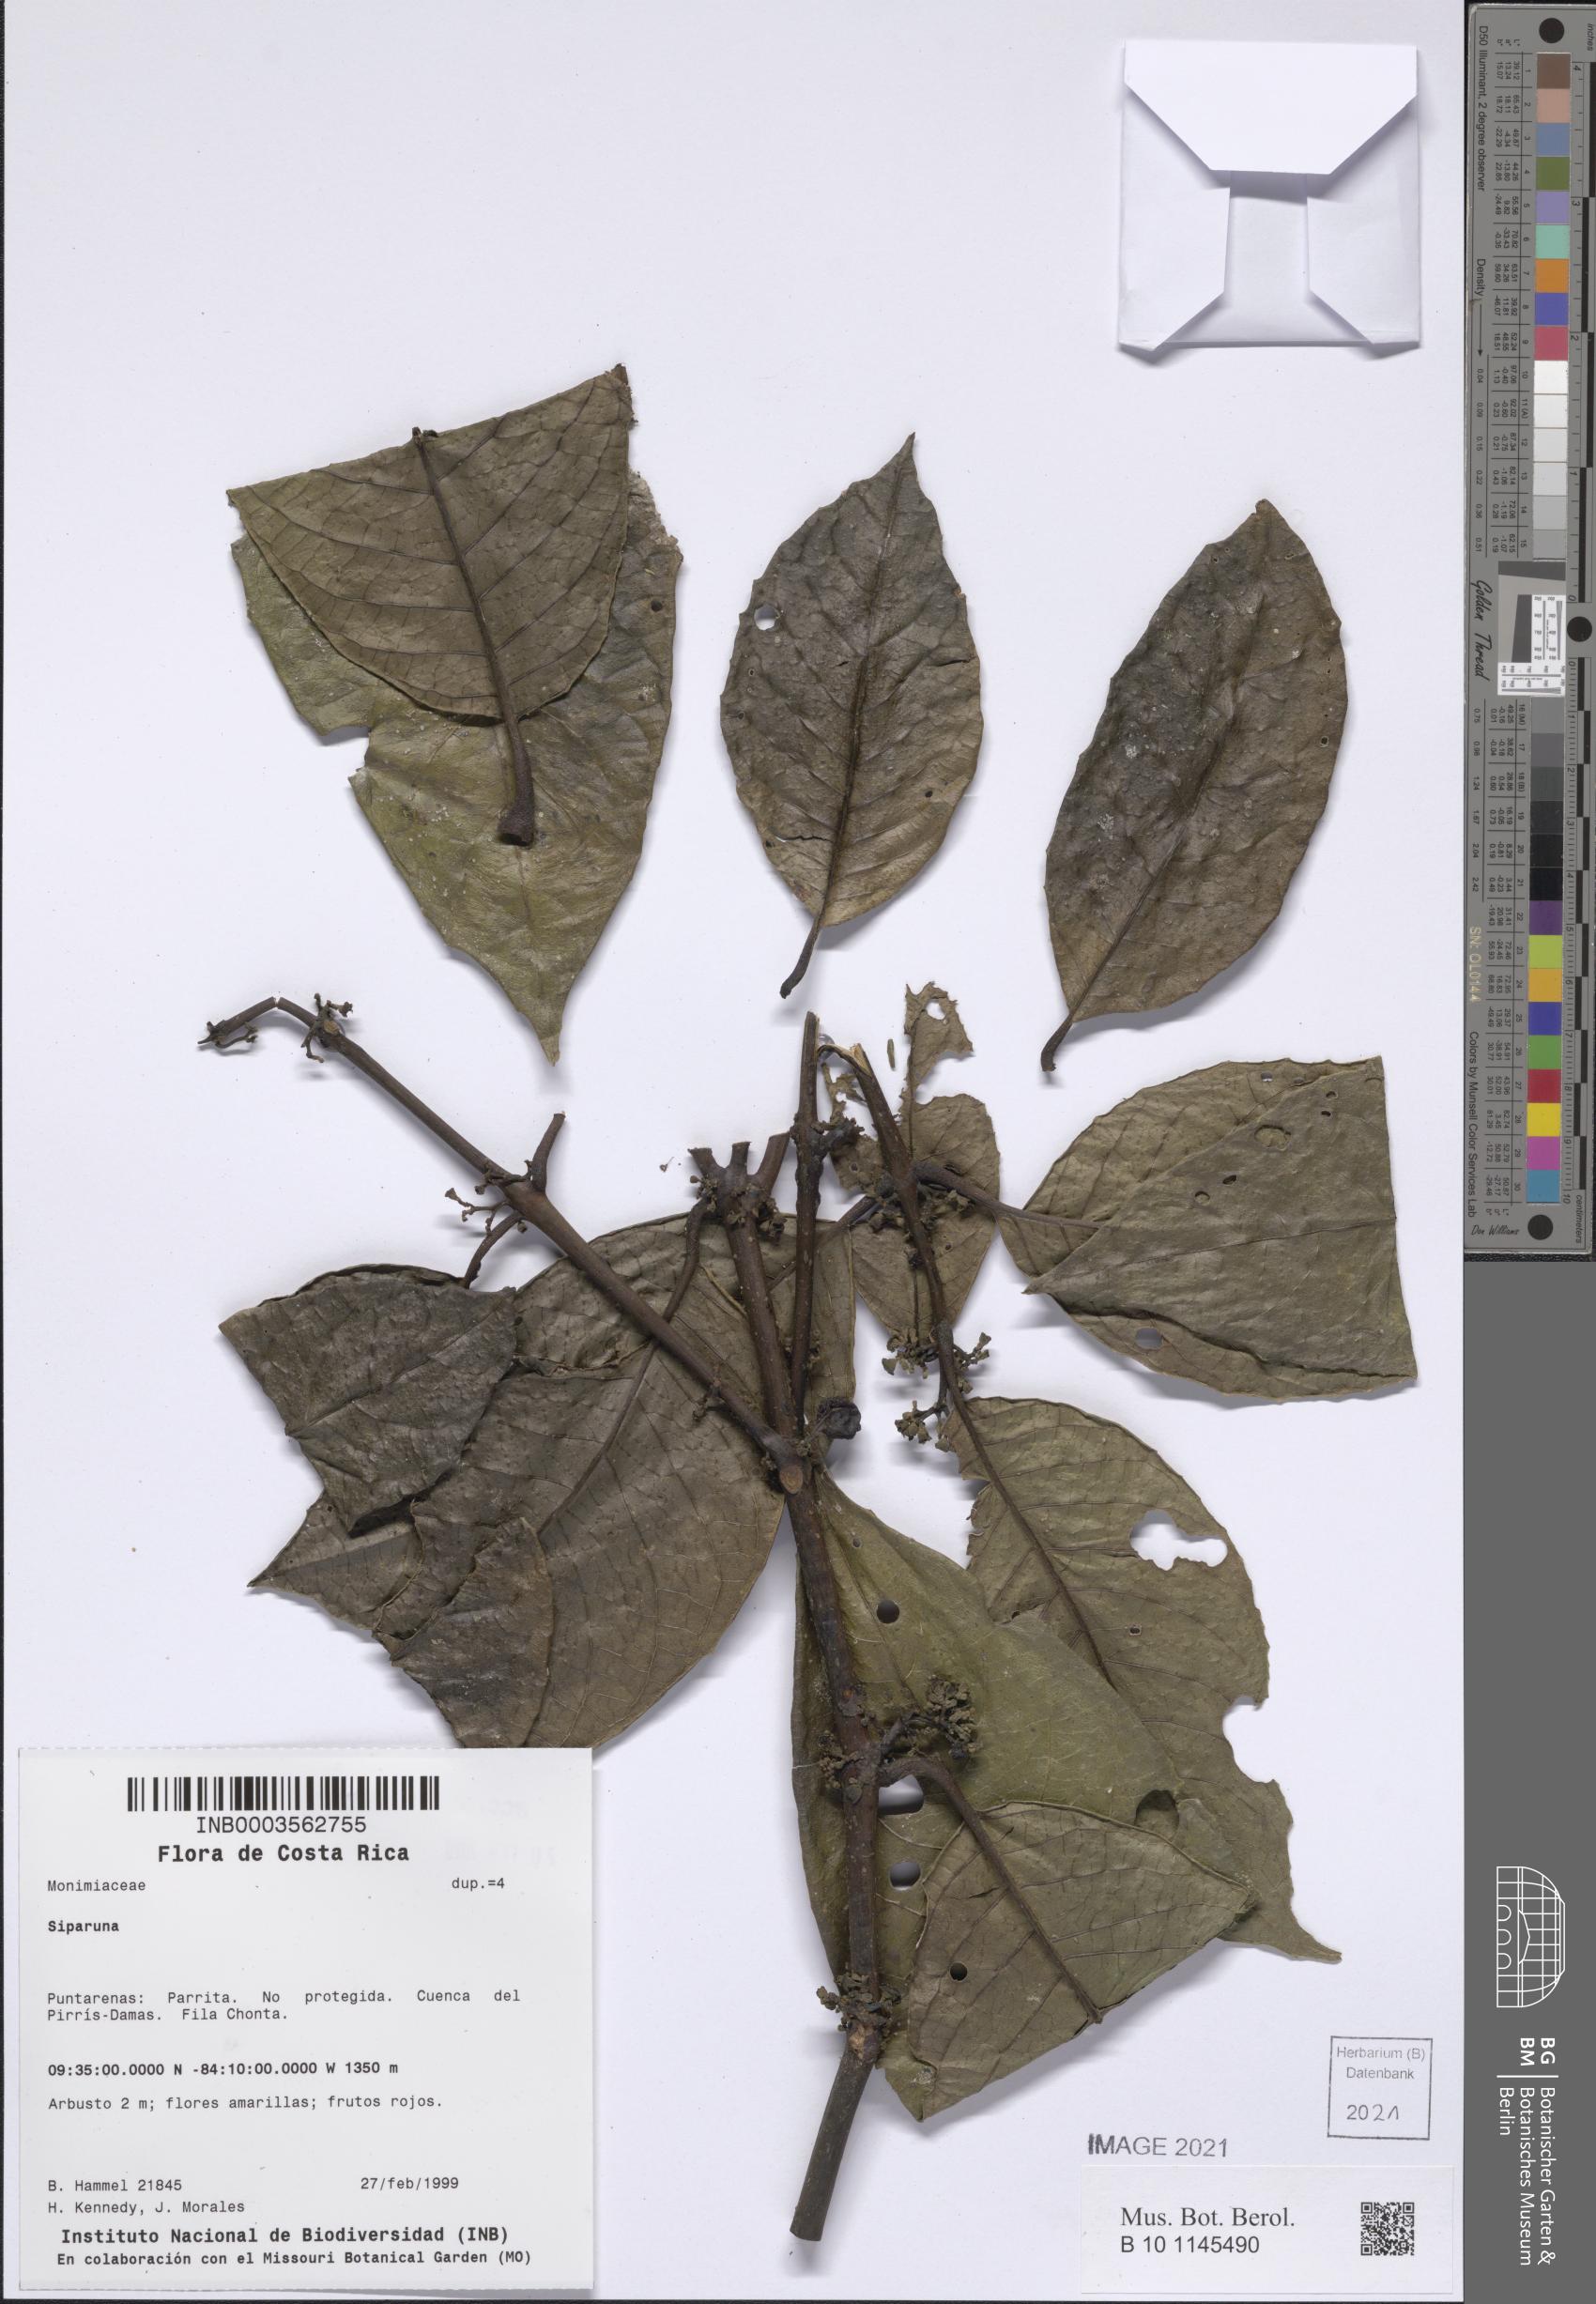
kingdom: Plantae
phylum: Tracheophyta
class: Magnoliopsida
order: Laurales
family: Siparunaceae
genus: Siparuna
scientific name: Siparuna
